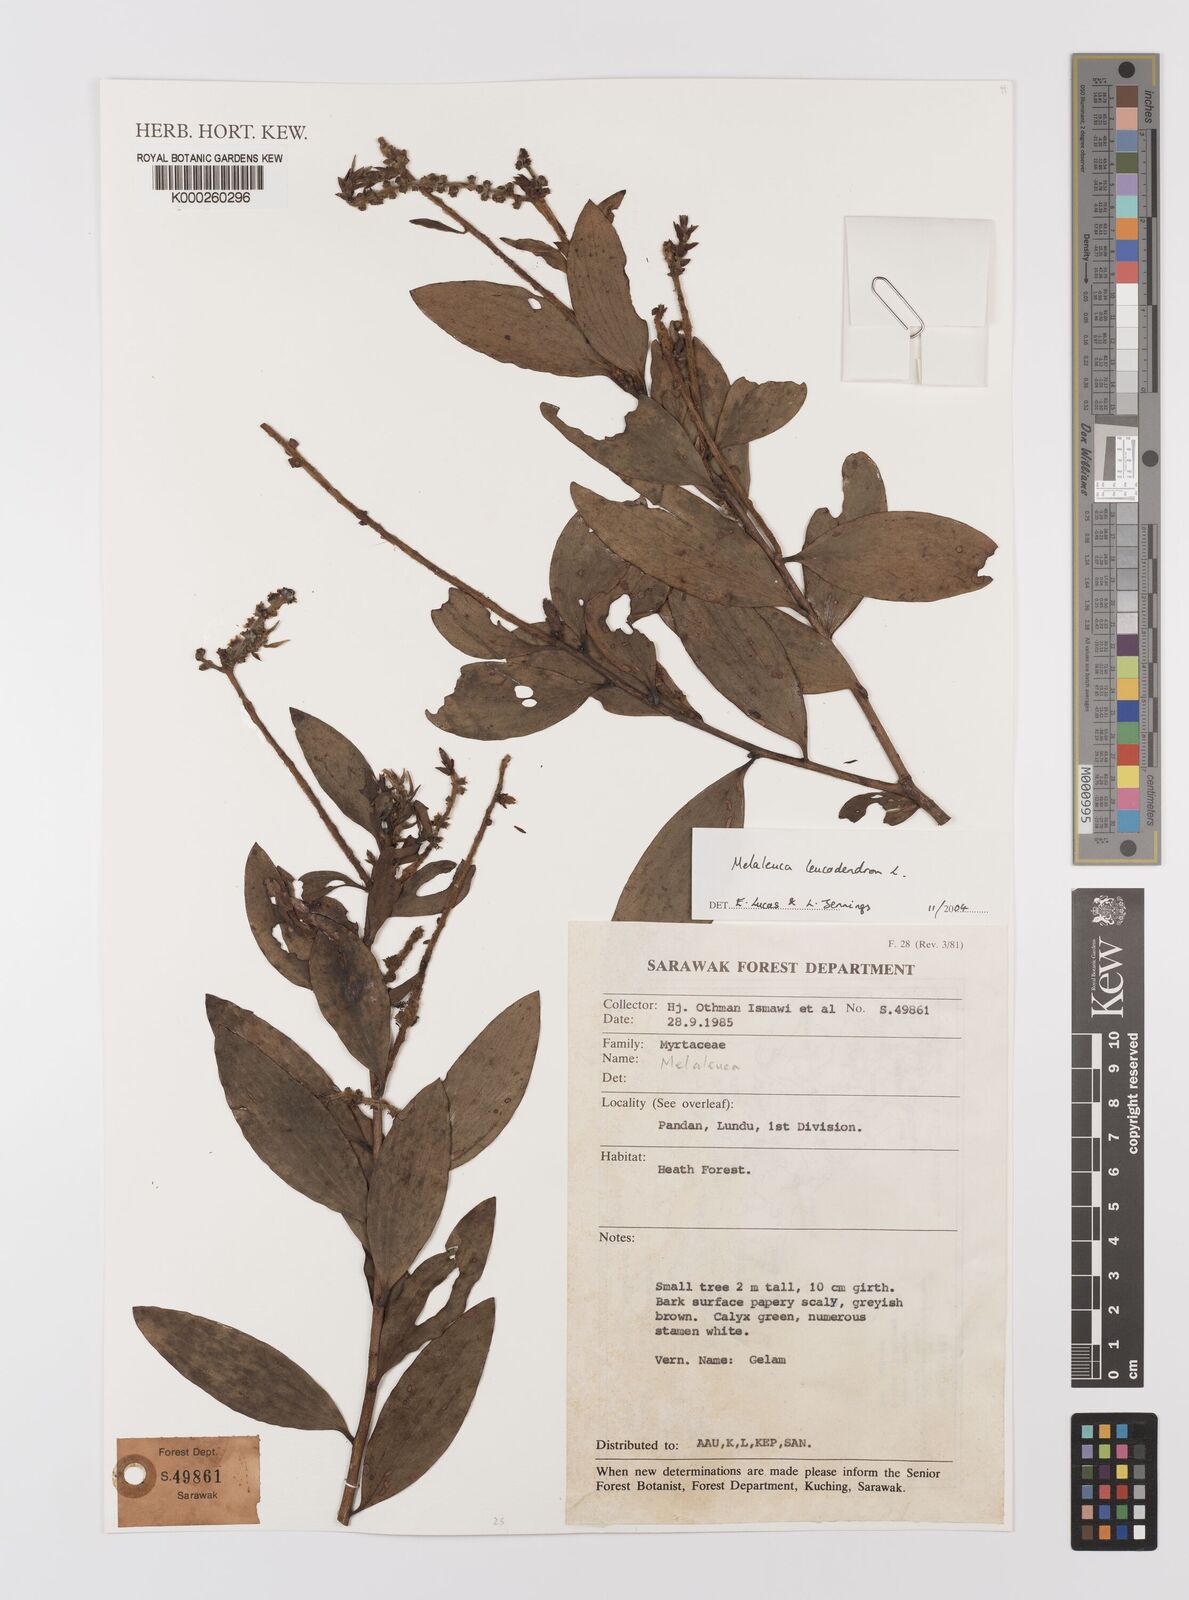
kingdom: Plantae
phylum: Tracheophyta
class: Magnoliopsida
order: Myrtales
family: Myrtaceae
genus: Melaleuca
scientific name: Melaleuca
